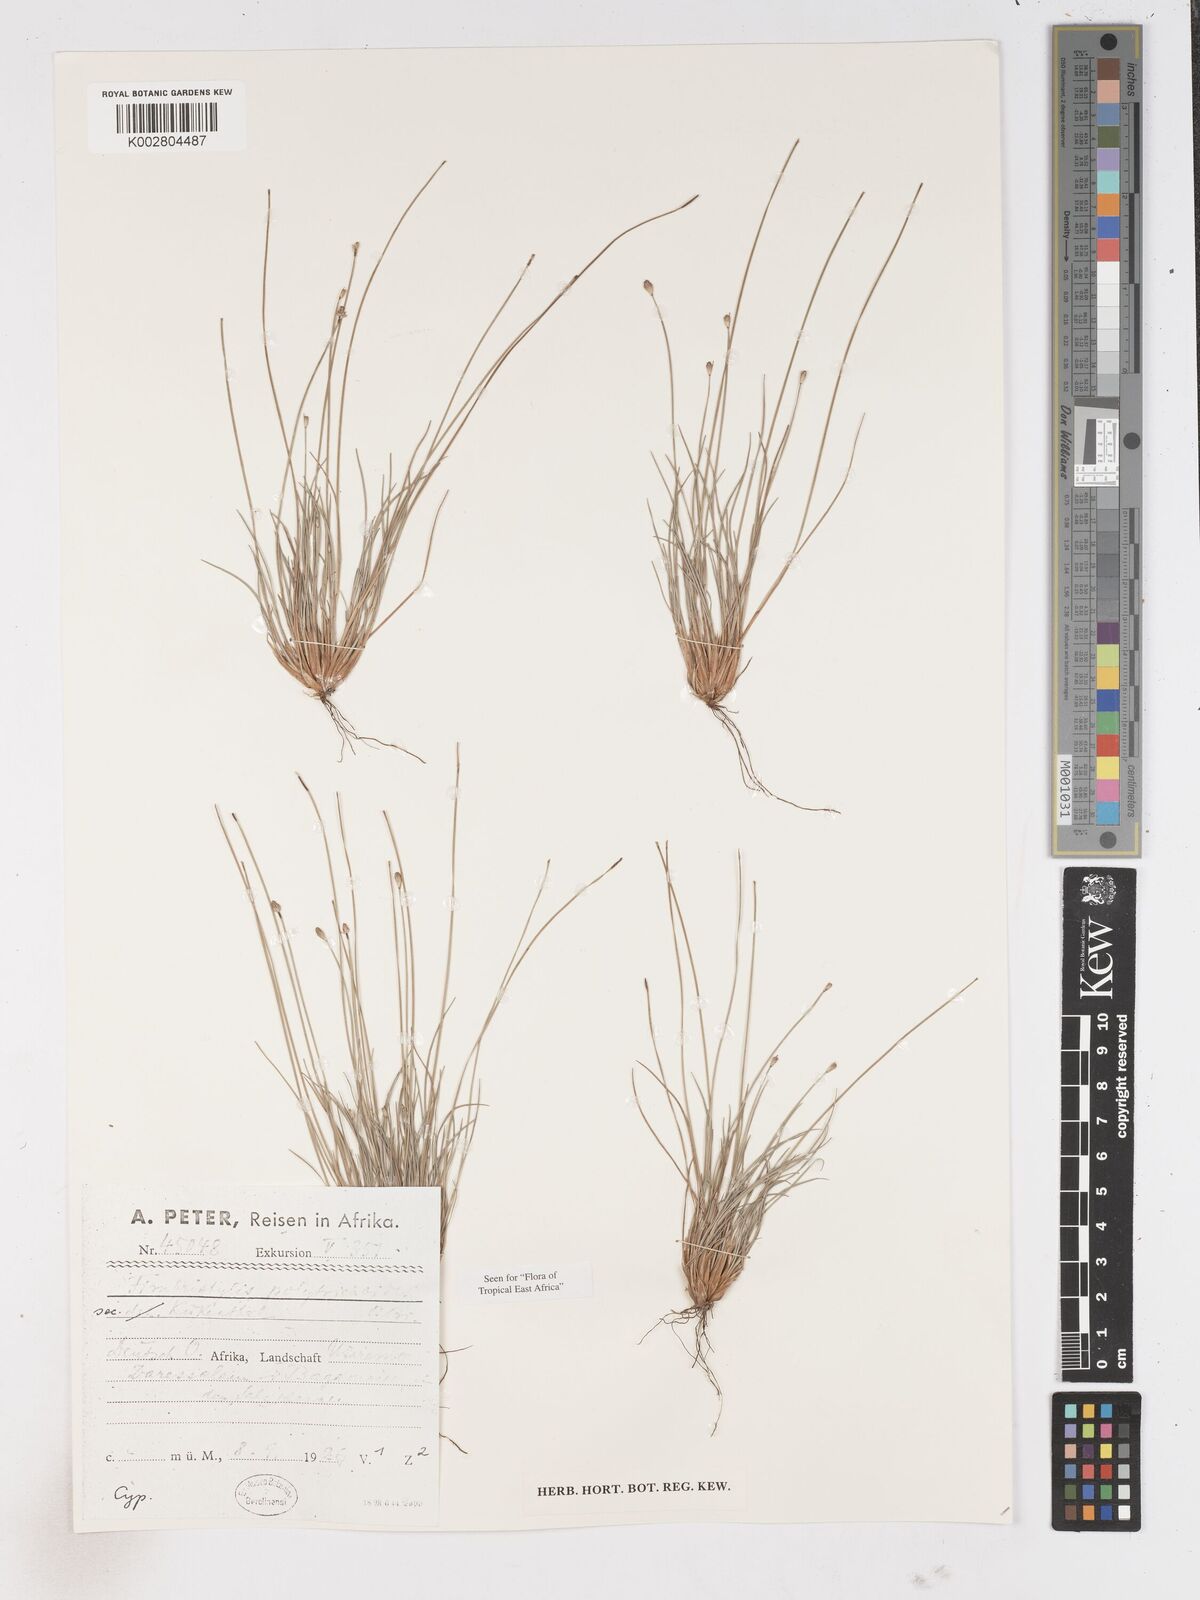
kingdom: Plantae
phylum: Tracheophyta
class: Liliopsida
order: Poales
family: Cyperaceae
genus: Fimbristylis
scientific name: Fimbristylis polytrichoides
